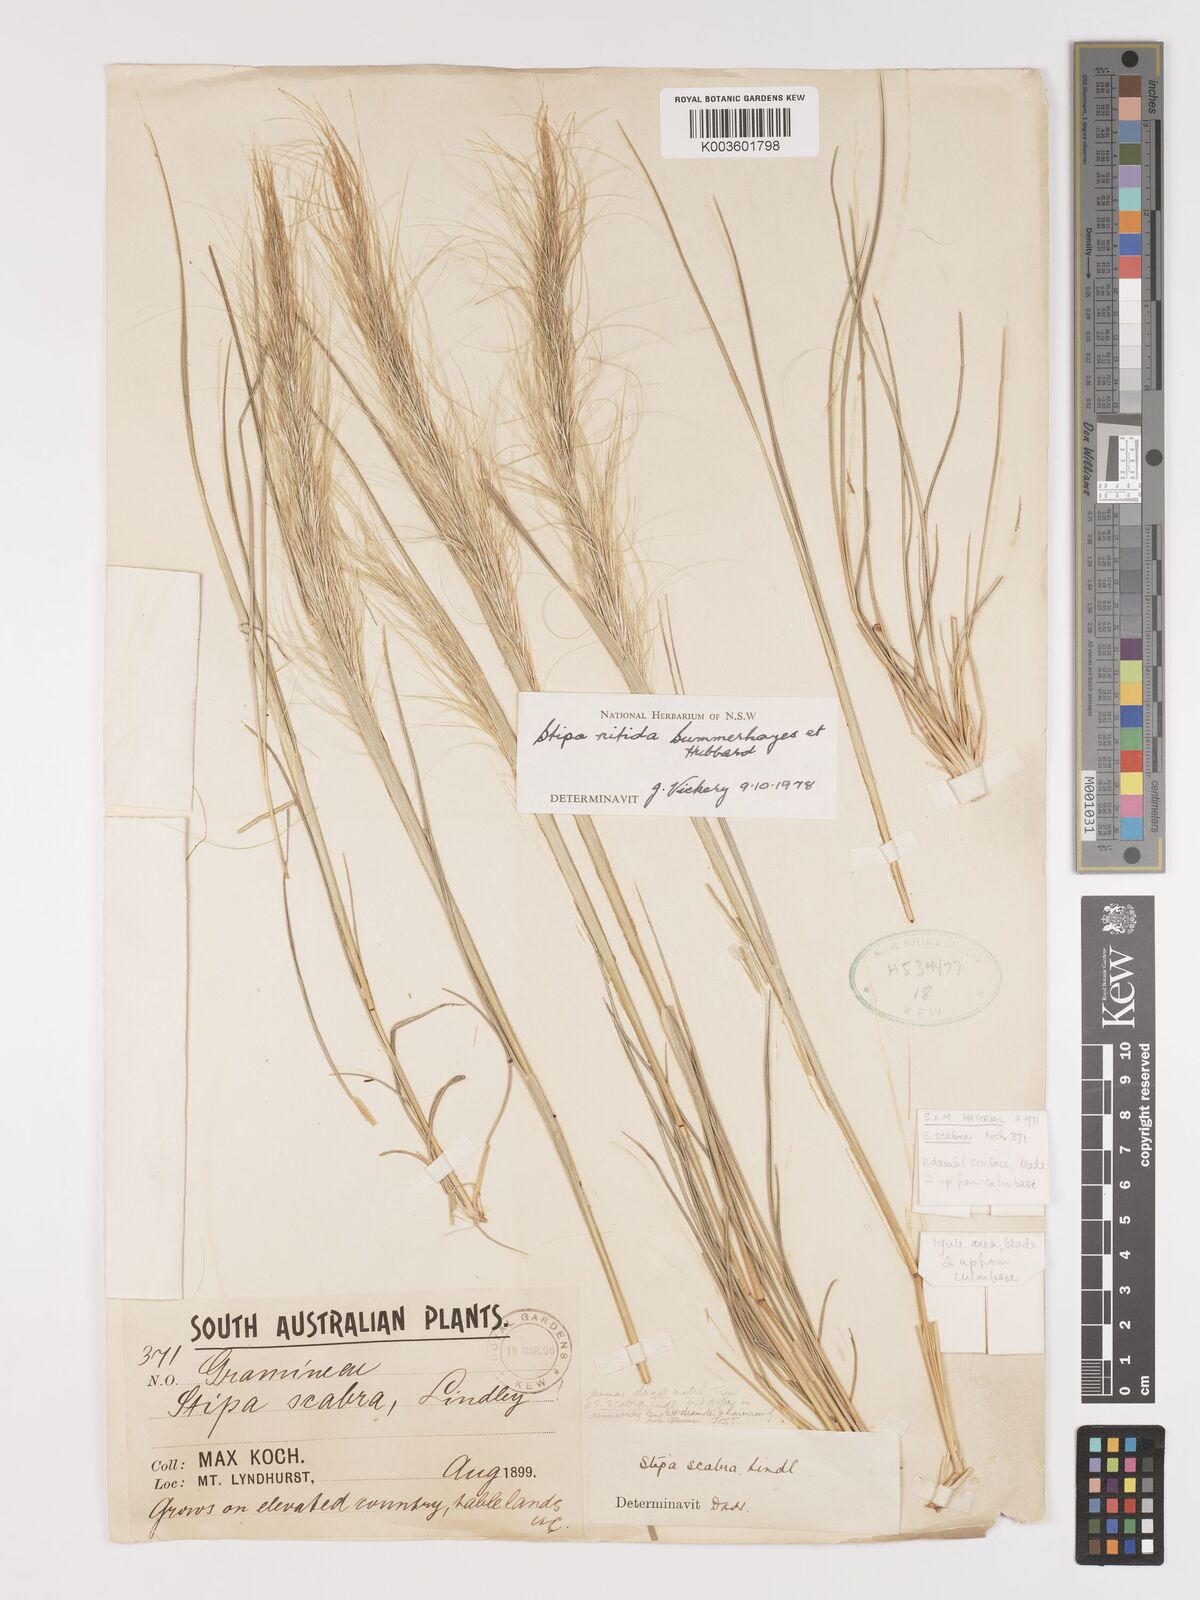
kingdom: Plantae
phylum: Tracheophyta
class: Liliopsida
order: Poales
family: Poaceae
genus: Austrostipa
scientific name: Austrostipa nitida
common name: Balcarra grass
